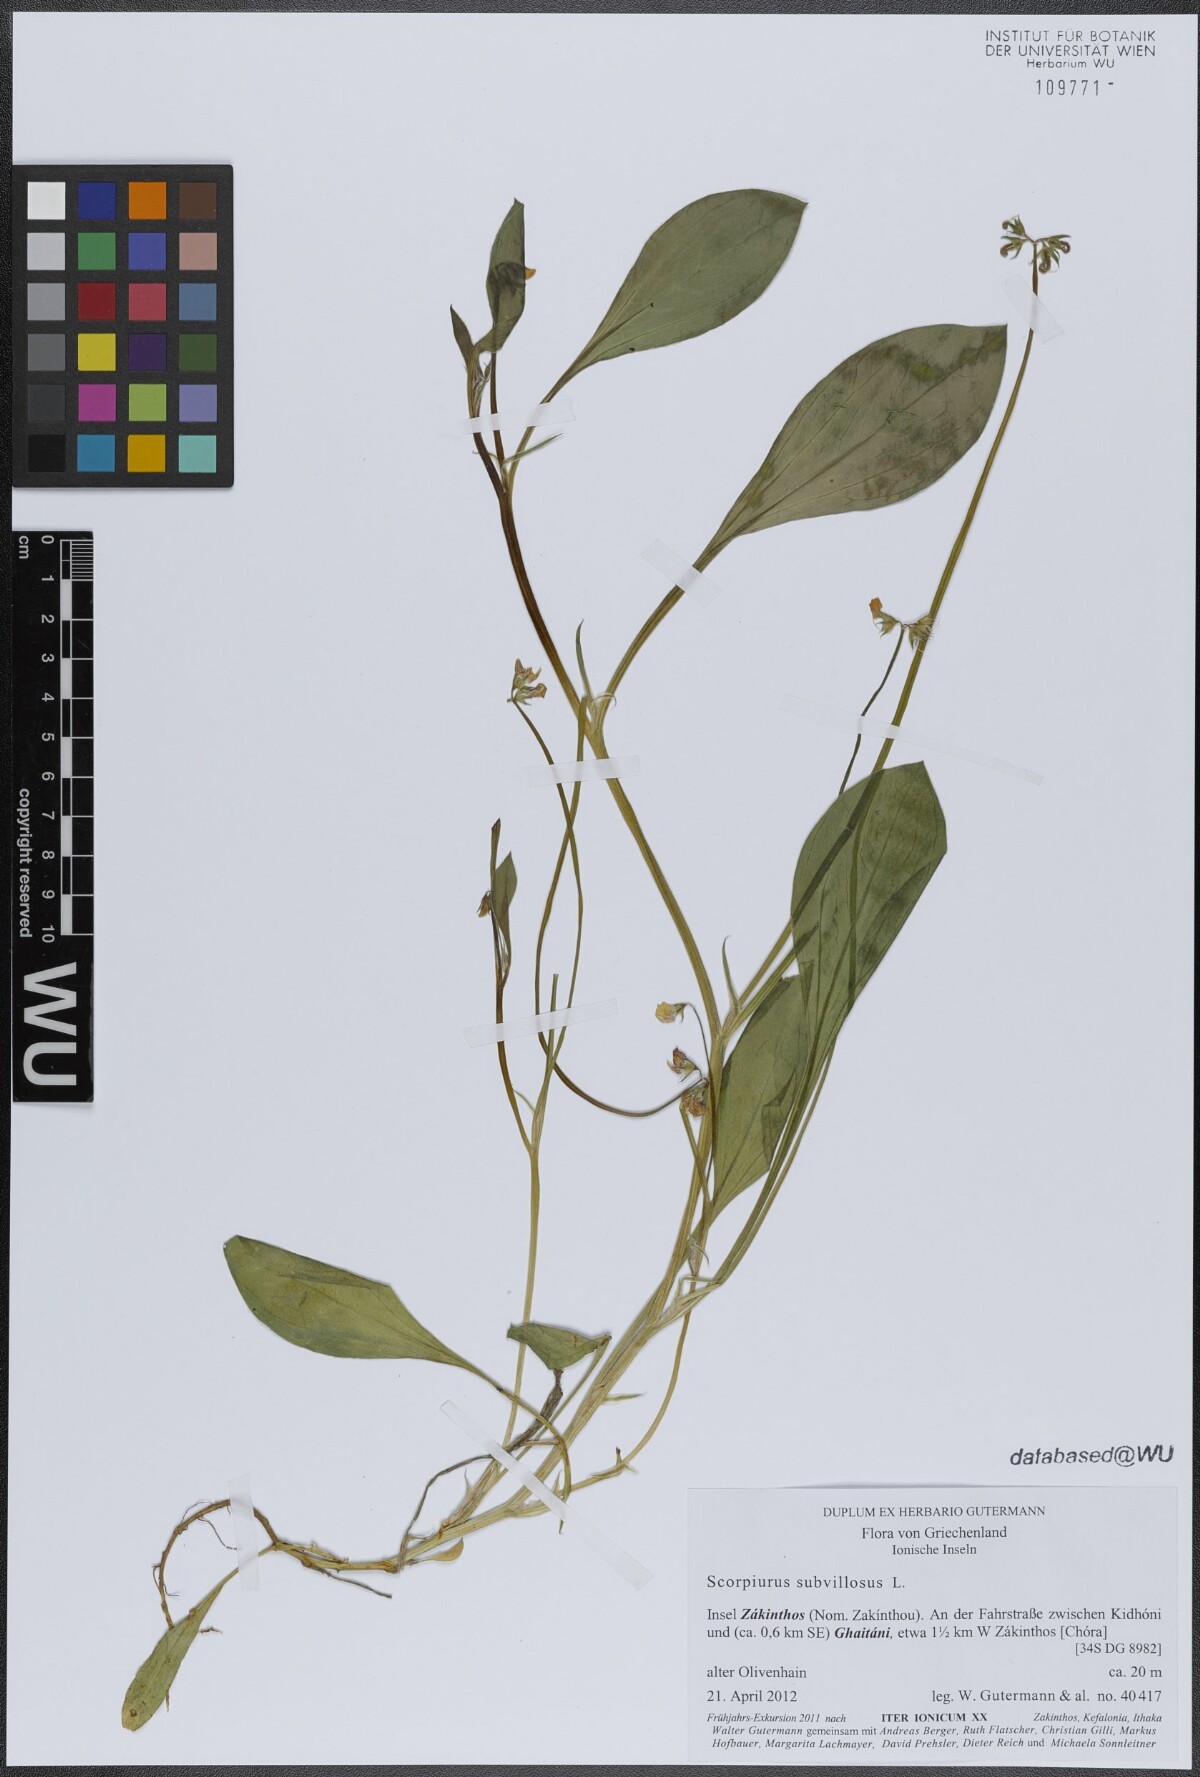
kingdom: Plantae
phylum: Tracheophyta
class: Magnoliopsida
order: Fabales
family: Fabaceae
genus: Scorpiurus
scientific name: Scorpiurus muricatus
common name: Caterpillar-plant
